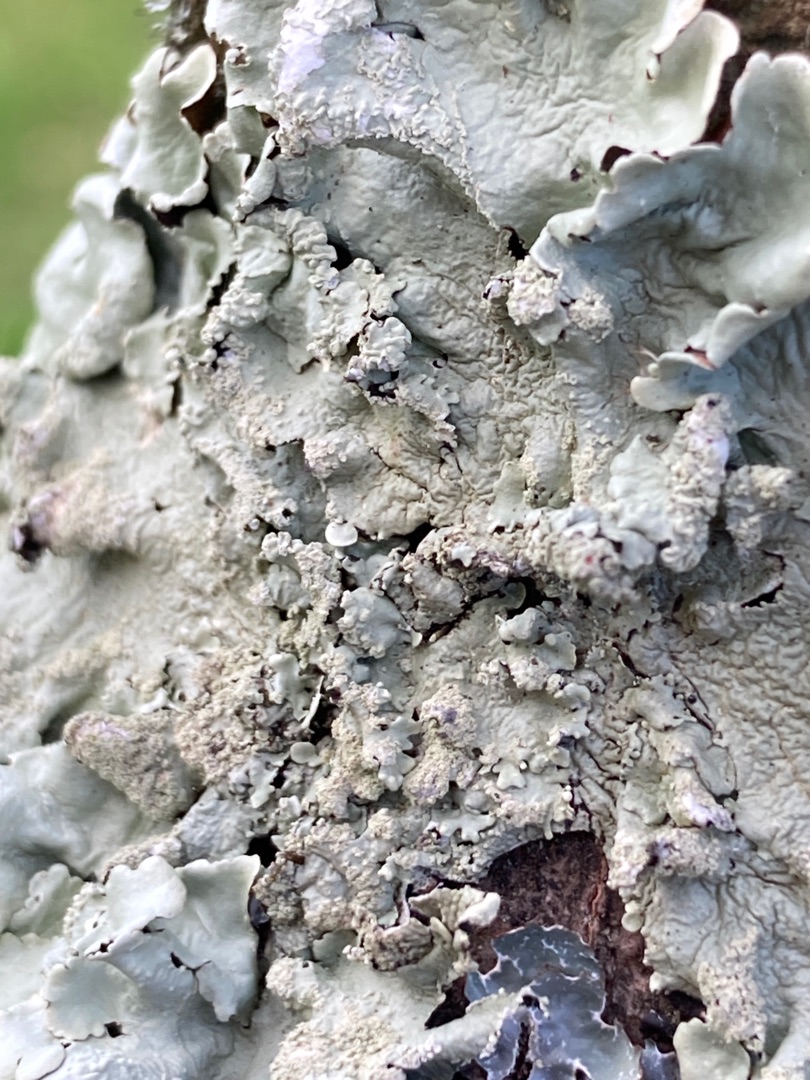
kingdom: Fungi
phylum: Ascomycota
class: Lecanoromycetes
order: Lecanorales
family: Parmeliaceae
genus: Flavoparmelia
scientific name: Flavoparmelia caperata
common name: Gulgrøn skållav
